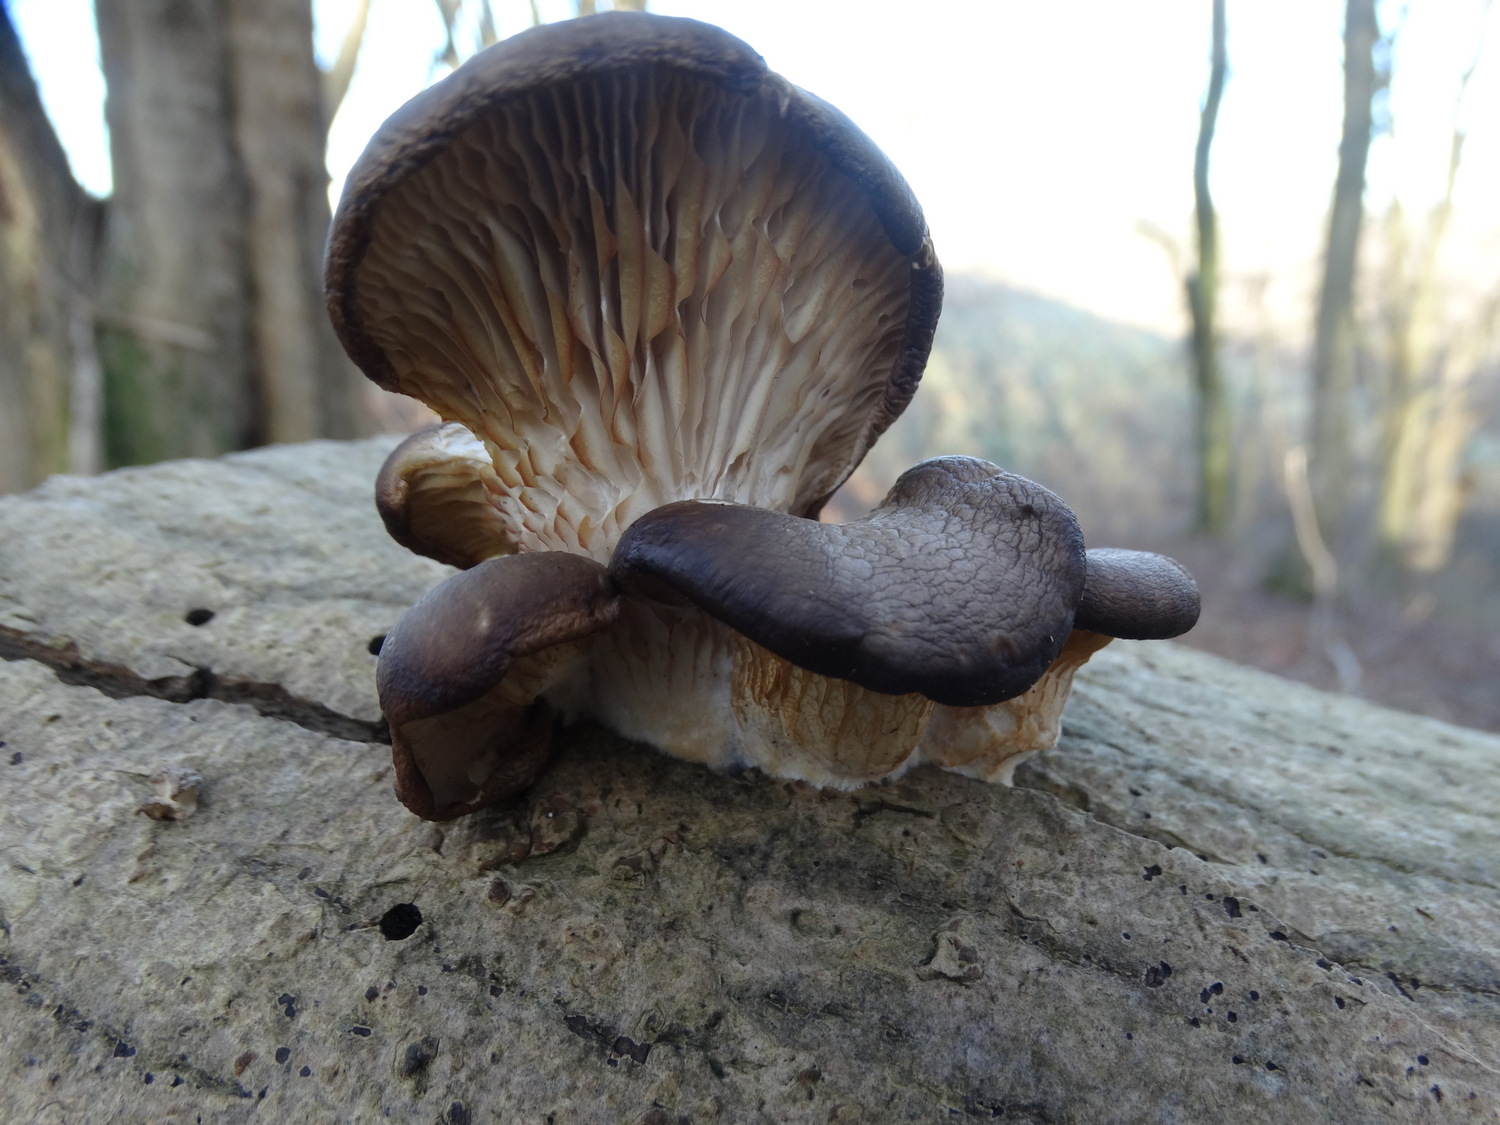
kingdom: Fungi
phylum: Basidiomycota
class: Agaricomycetes
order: Agaricales
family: Pleurotaceae
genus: Pleurotus
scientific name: Pleurotus ostreatus
